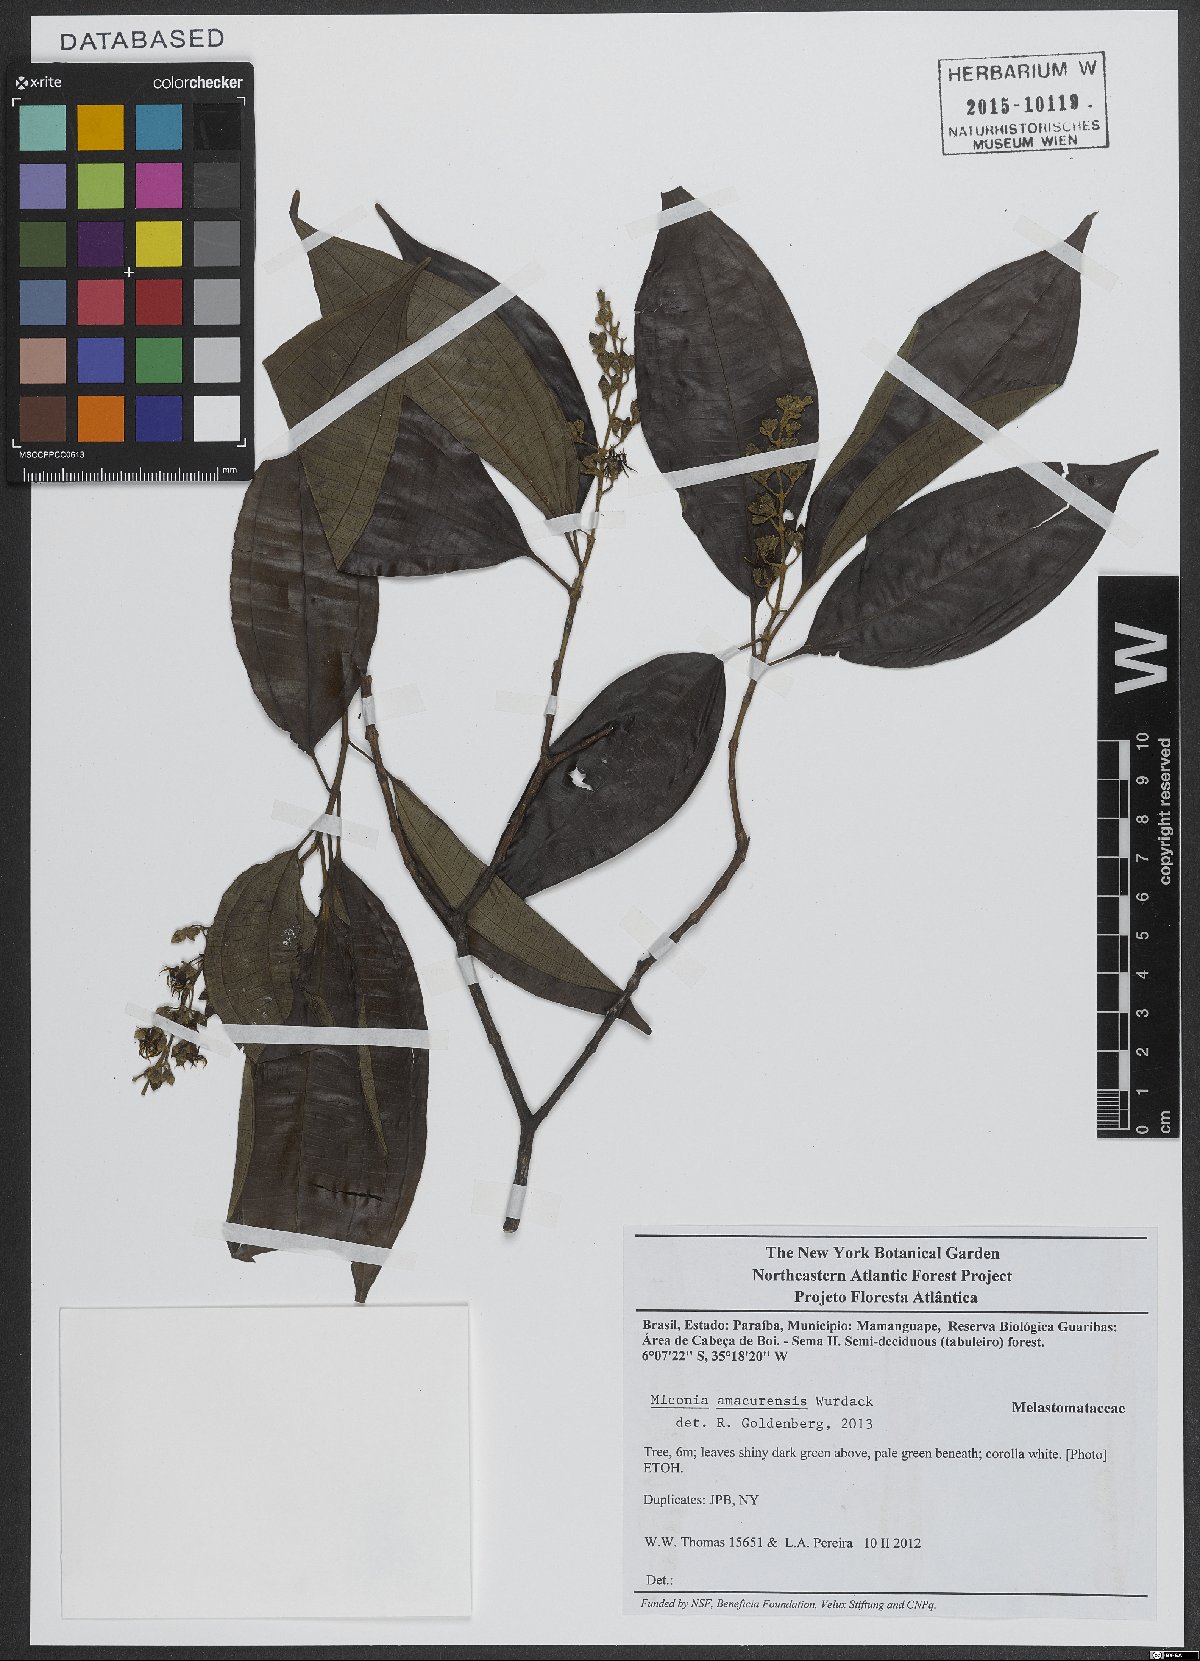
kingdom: Plantae
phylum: Tracheophyta
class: Magnoliopsida
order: Myrtales
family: Melastomataceae
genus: Miconia
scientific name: Miconia amacurensis
